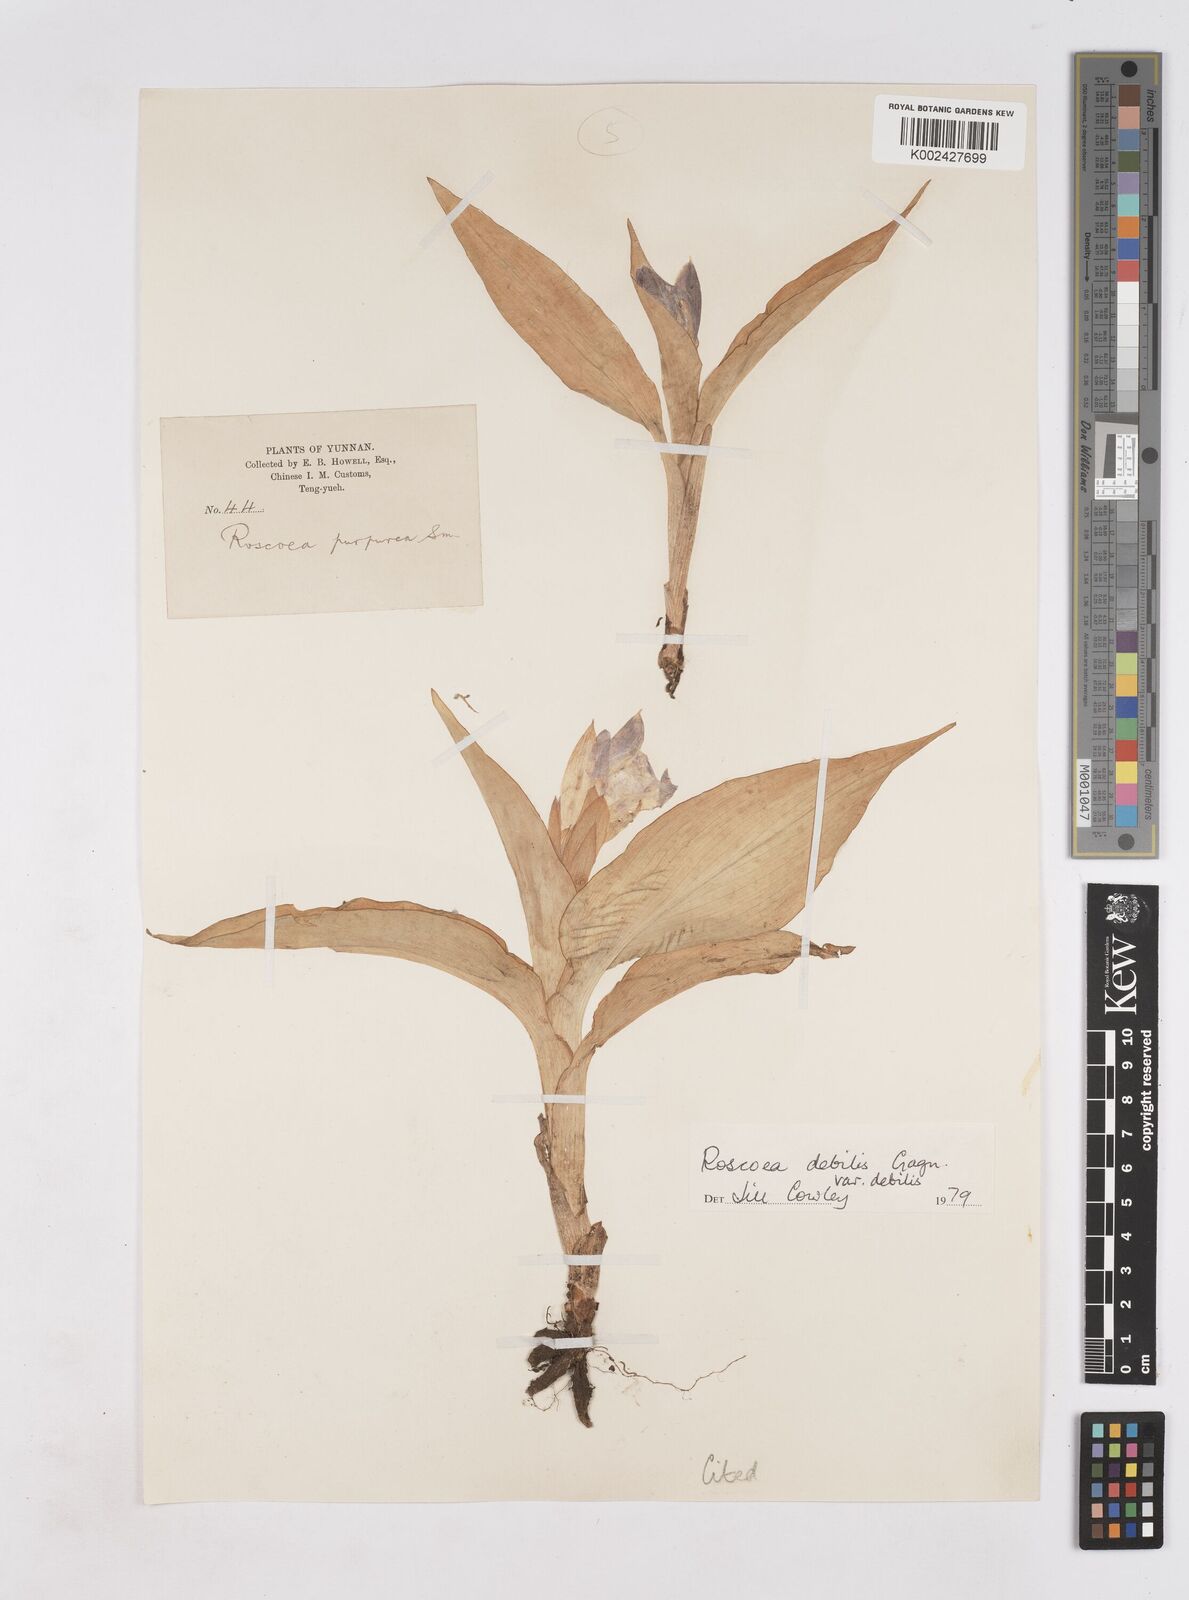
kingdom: Plantae
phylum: Tracheophyta
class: Liliopsida
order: Zingiberales
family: Zingiberaceae
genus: Roscoea
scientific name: Roscoea debilis
